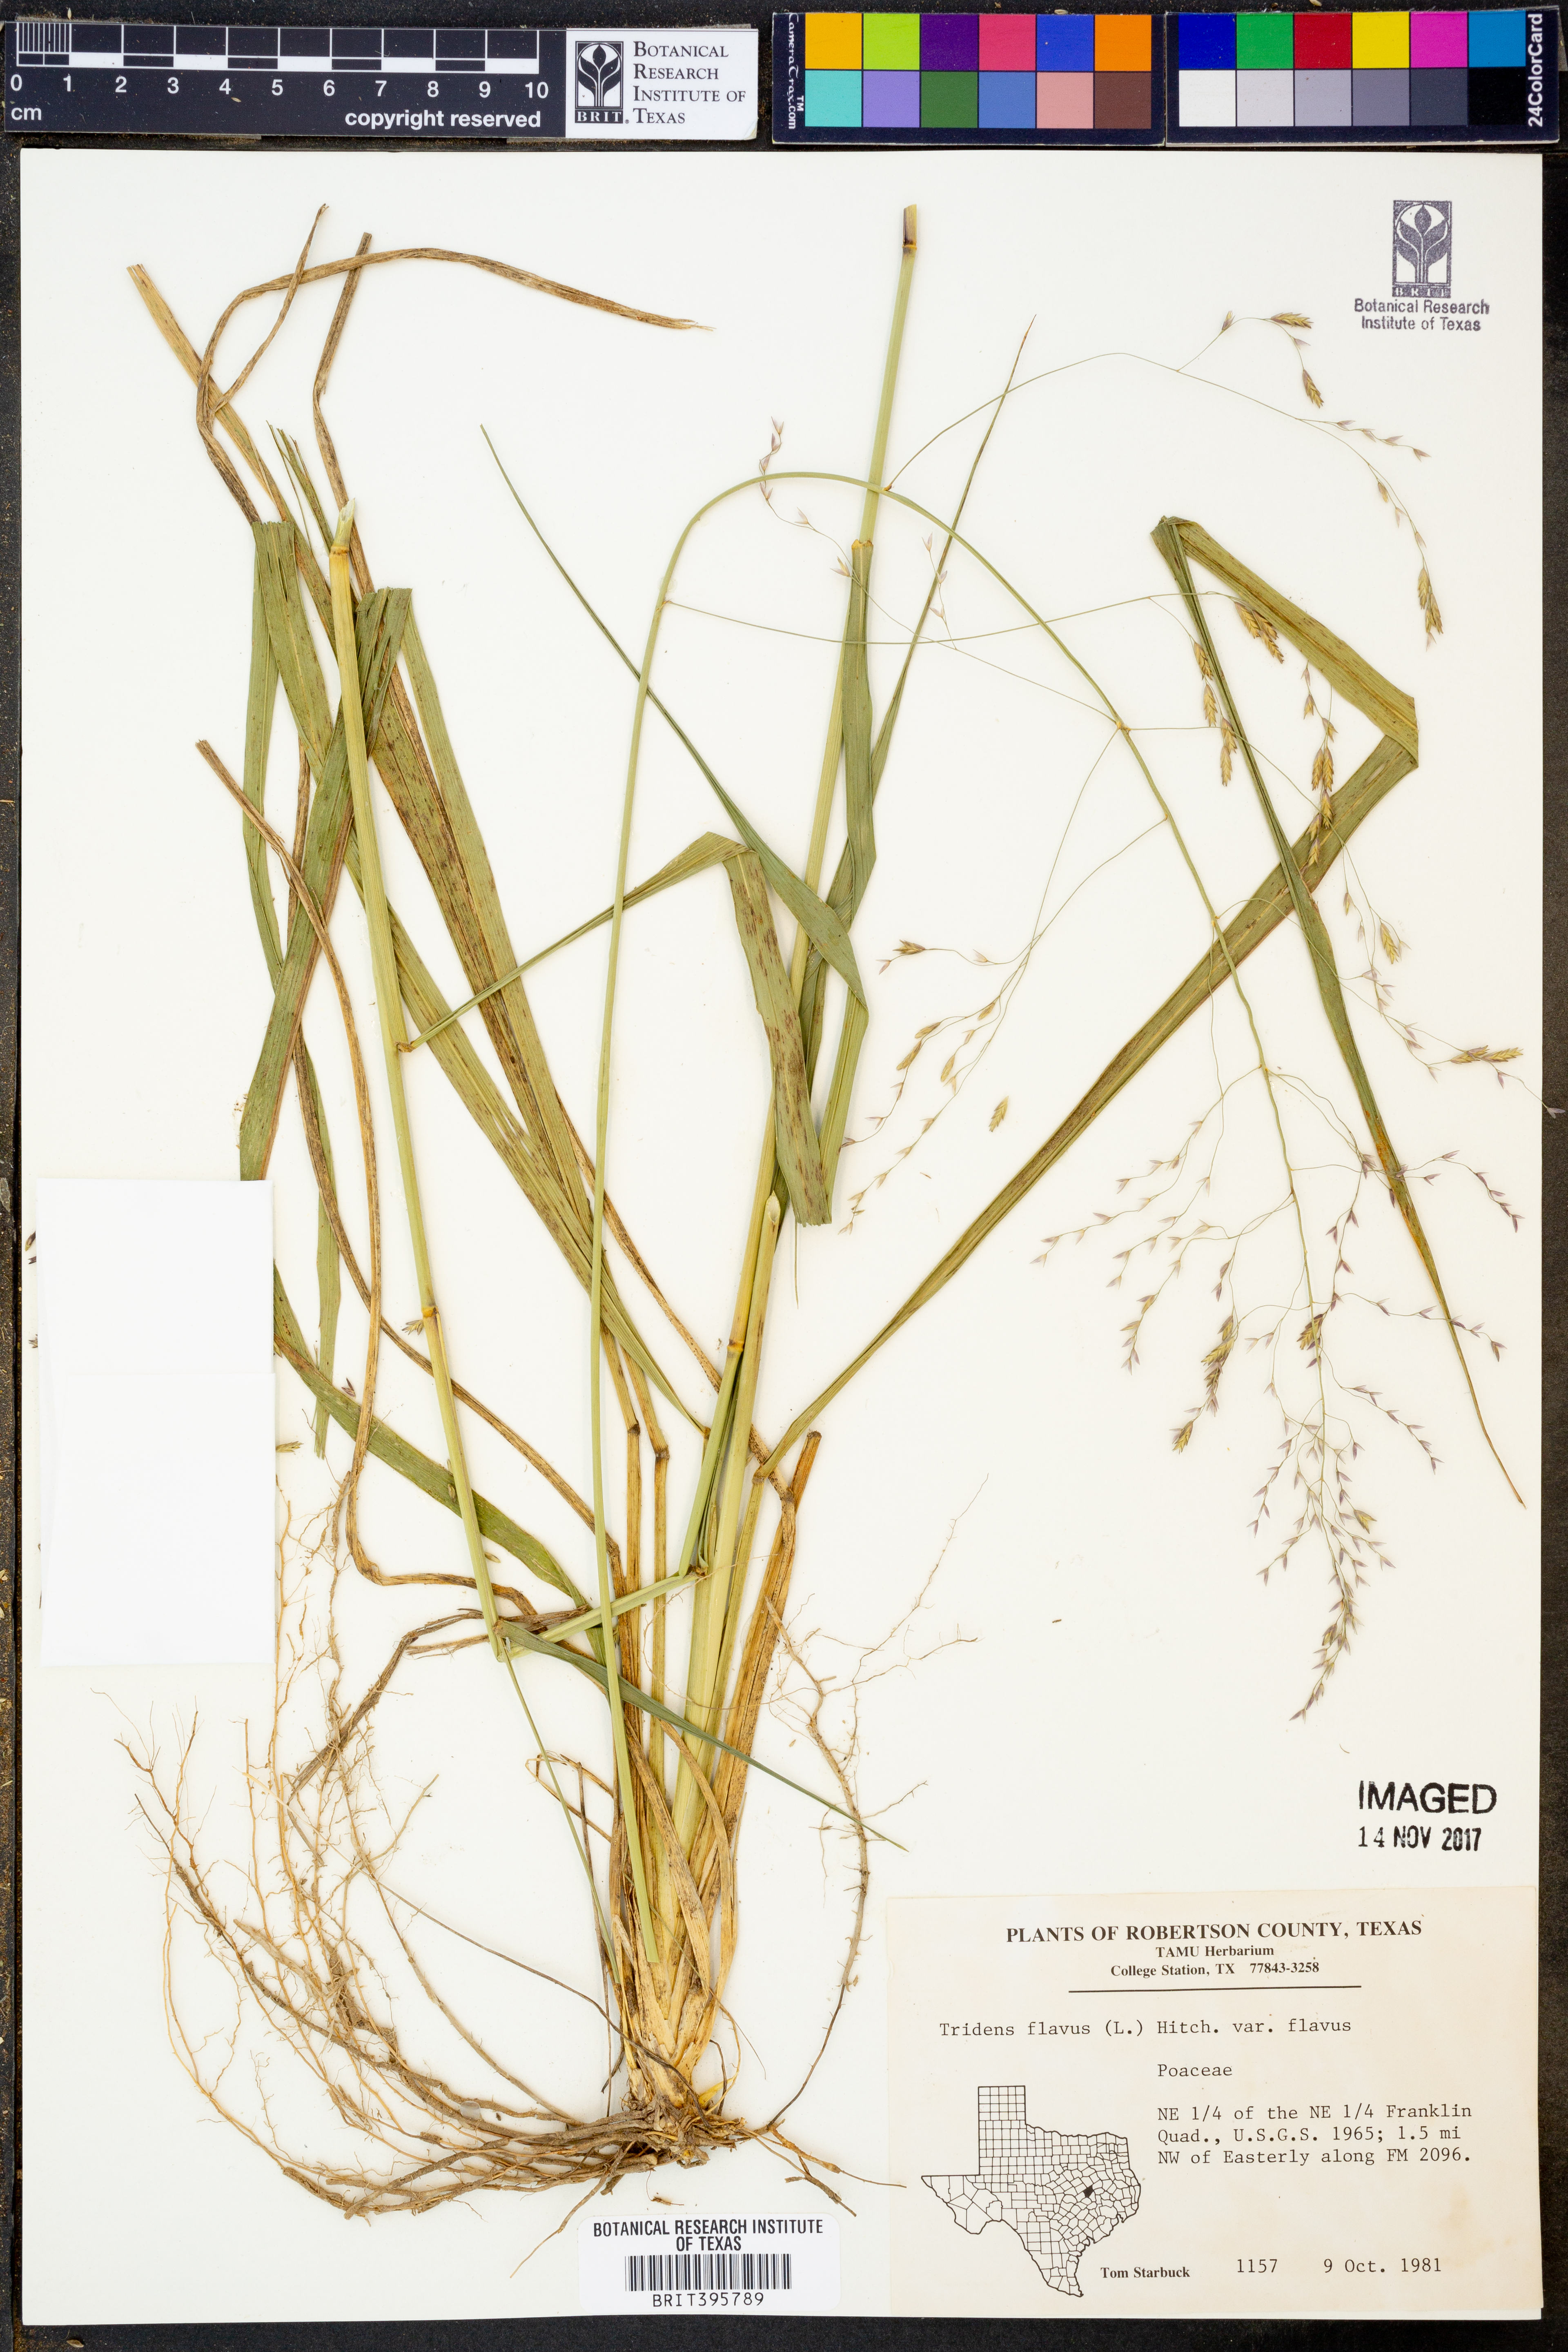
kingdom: Plantae
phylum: Tracheophyta
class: Liliopsida
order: Poales
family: Poaceae
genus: Tridens
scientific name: Tridens flavus
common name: Purpletop
